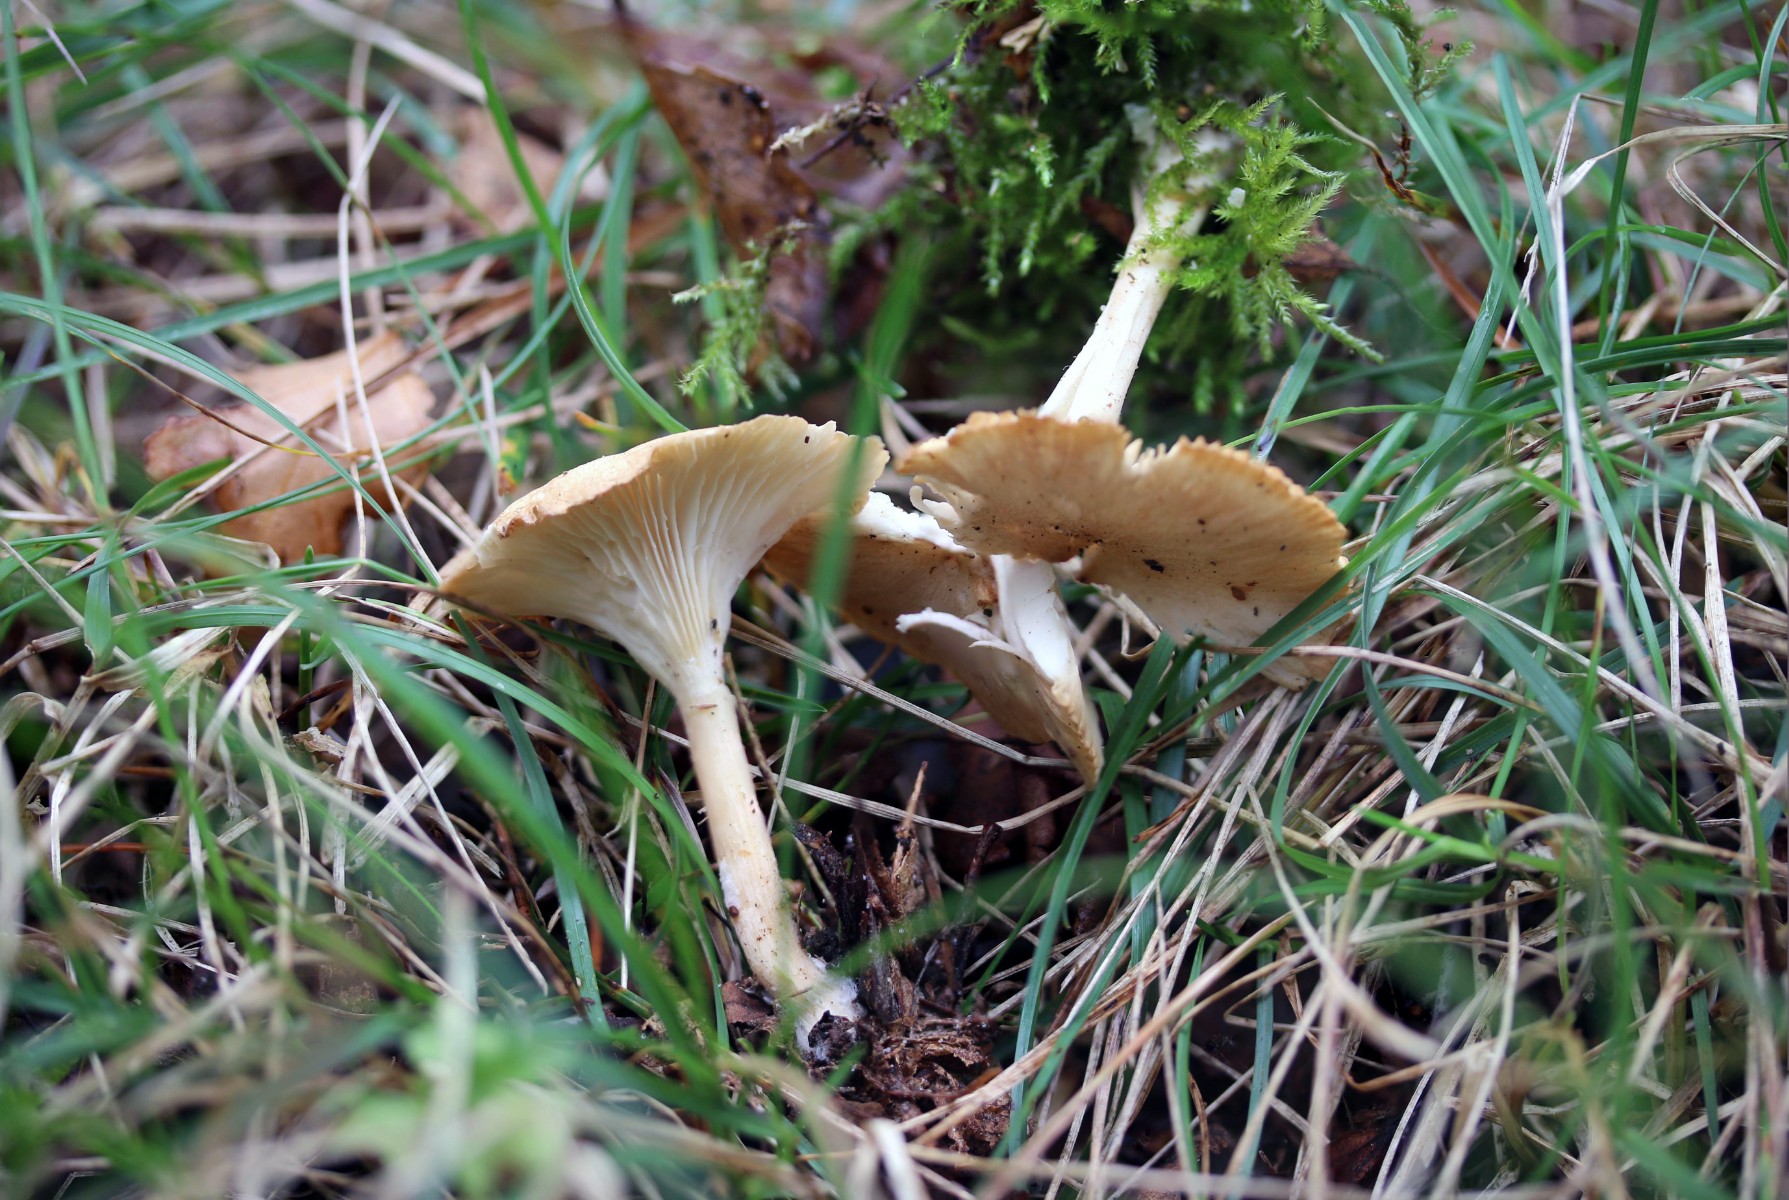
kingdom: Fungi
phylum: Basidiomycota
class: Agaricomycetes
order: Agaricales
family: Tricholomataceae
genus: Infundibulicybe
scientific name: Infundibulicybe gibba
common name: almindelig tragthat
